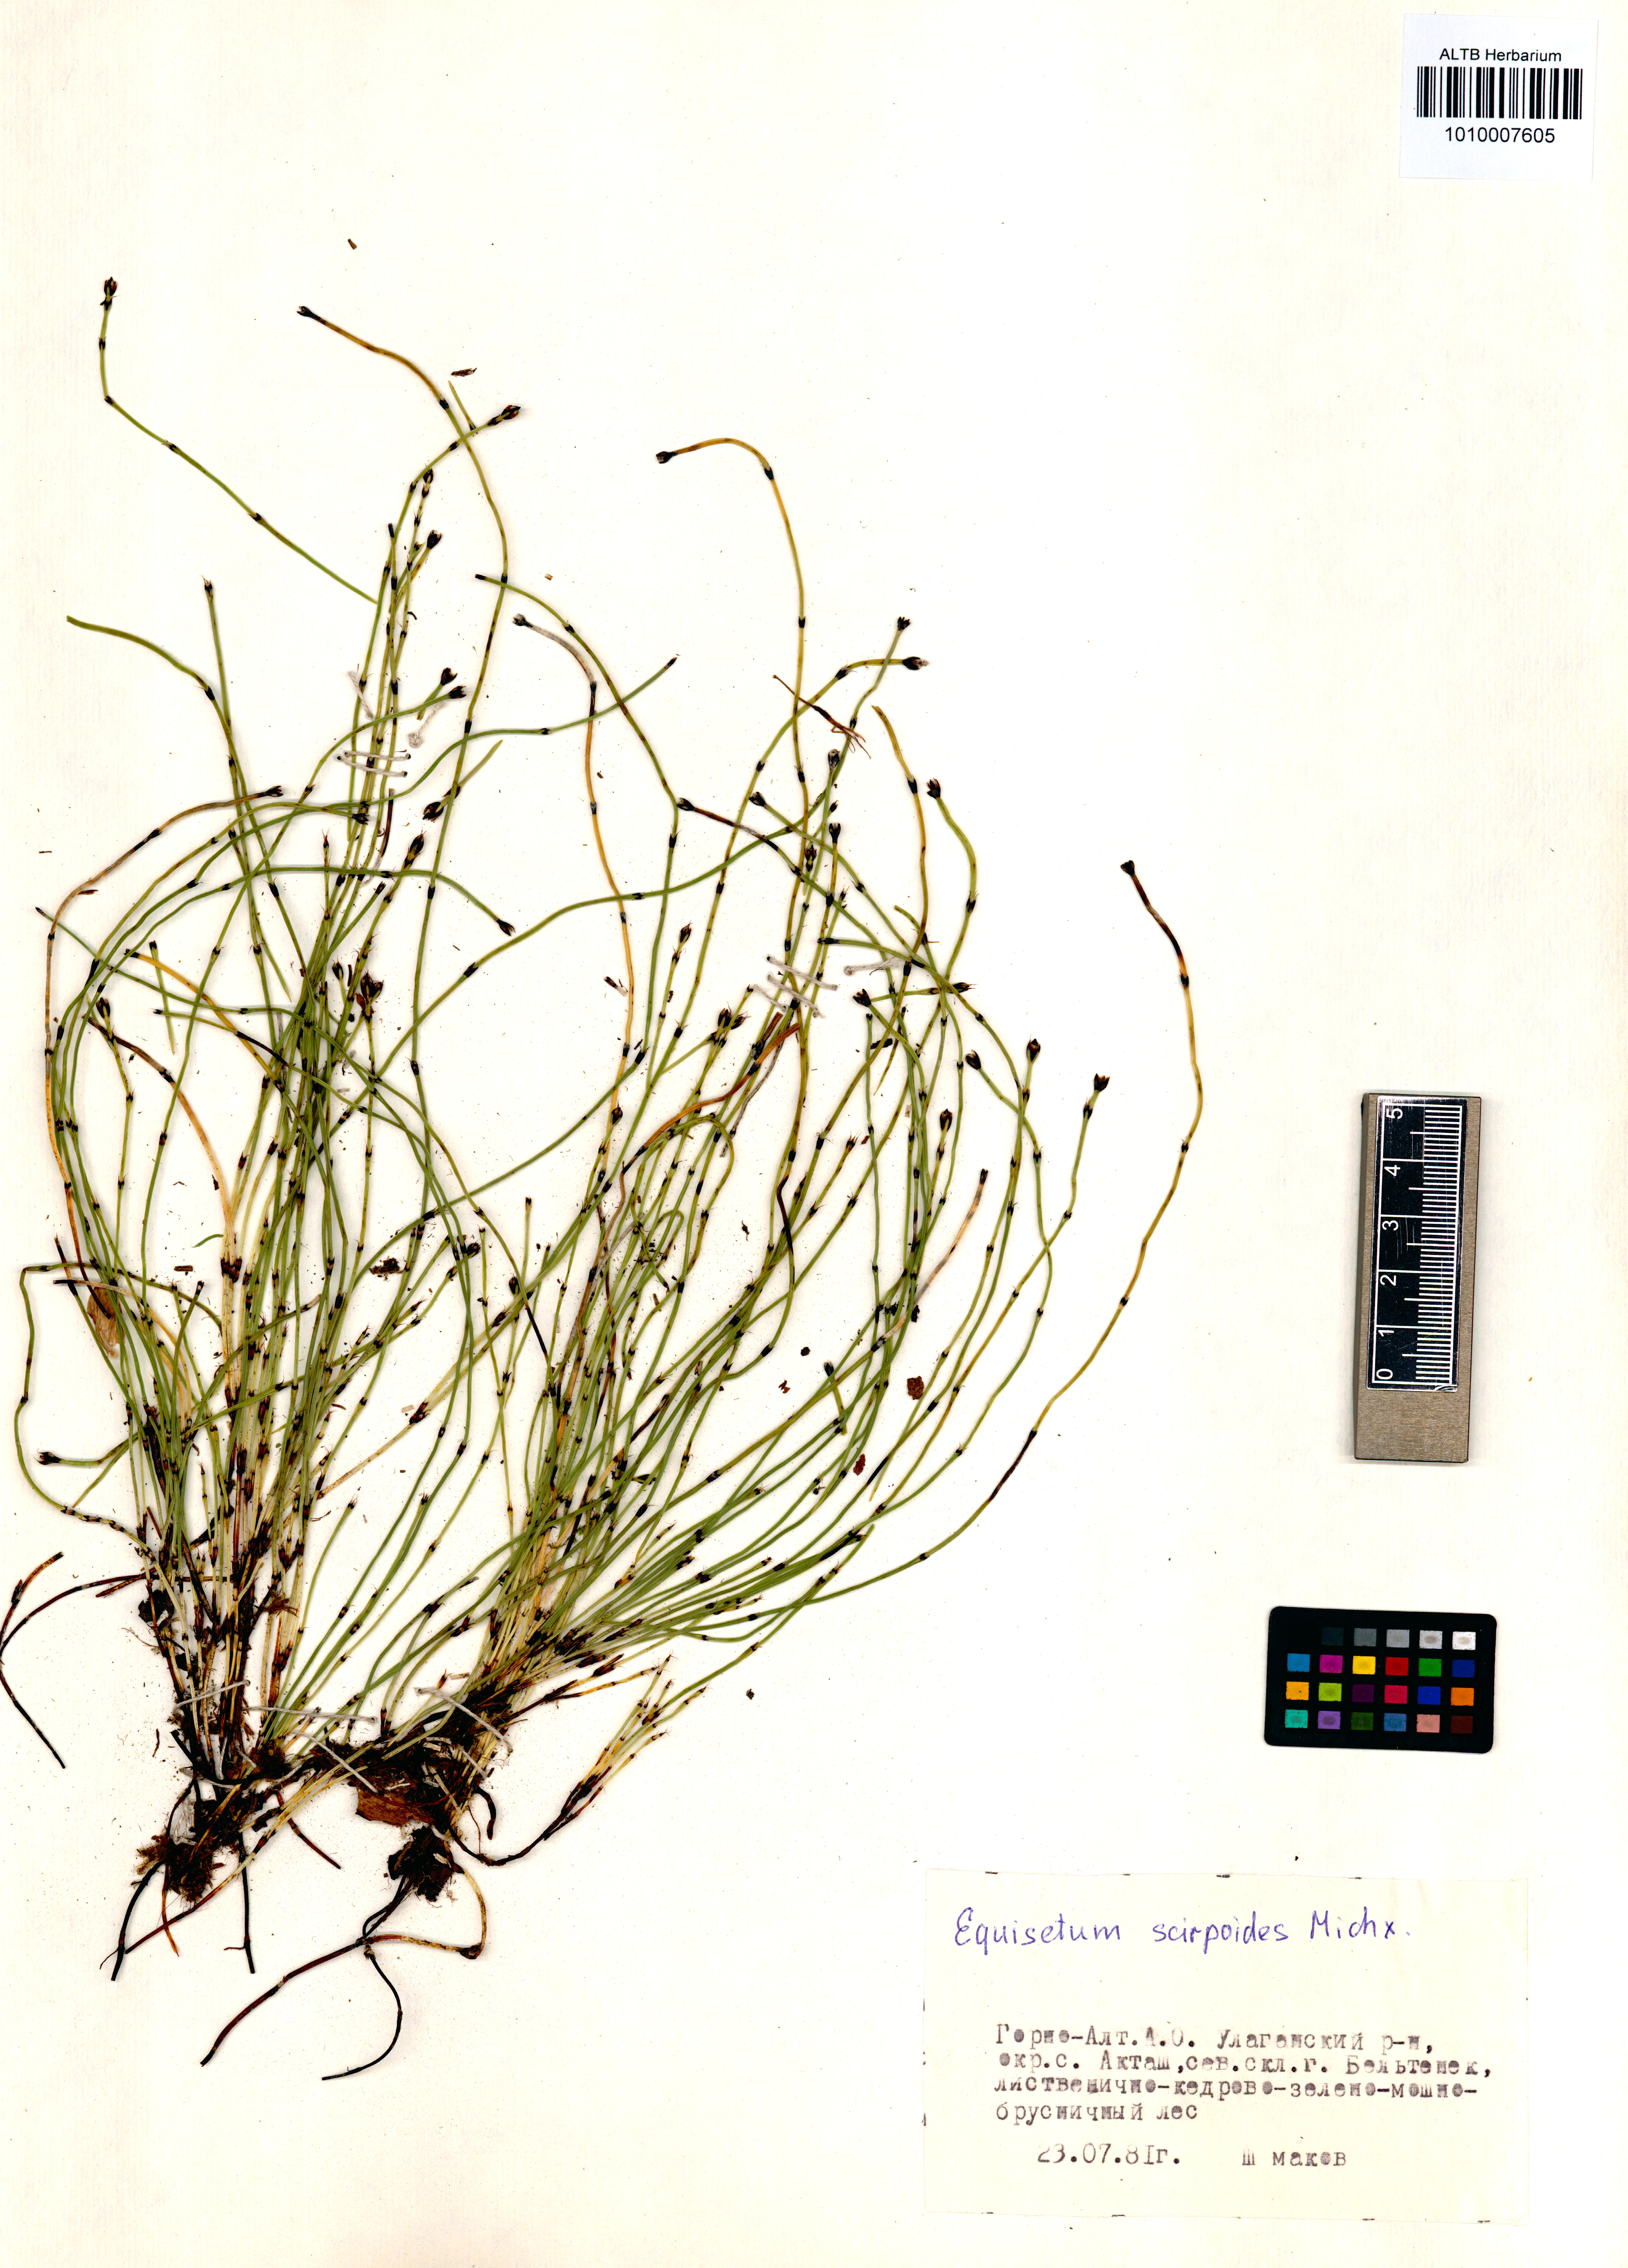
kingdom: Plantae
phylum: Tracheophyta
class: Polypodiopsida
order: Equisetales
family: Equisetaceae
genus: Equisetum
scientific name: Equisetum scirpoides
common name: Delicate horsetail
